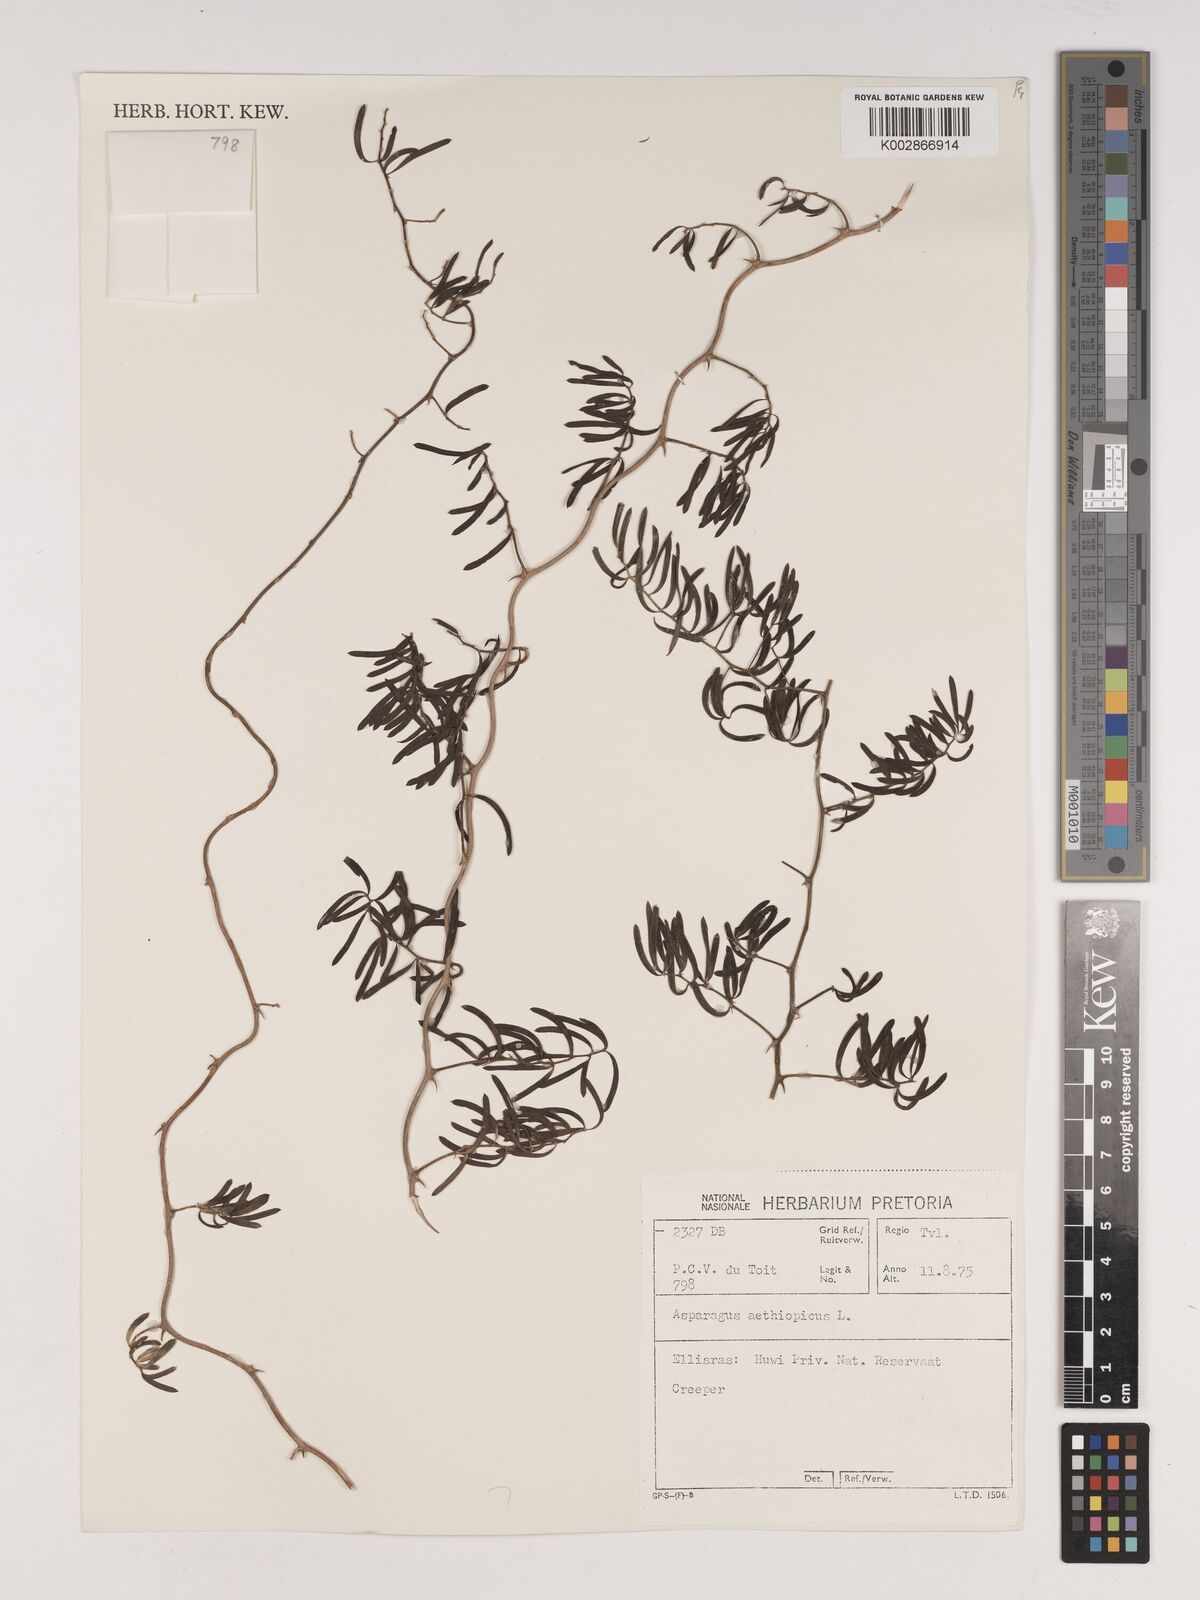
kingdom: Plantae
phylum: Tracheophyta
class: Liliopsida
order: Asparagales
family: Asparagaceae
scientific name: Asparagaceae
